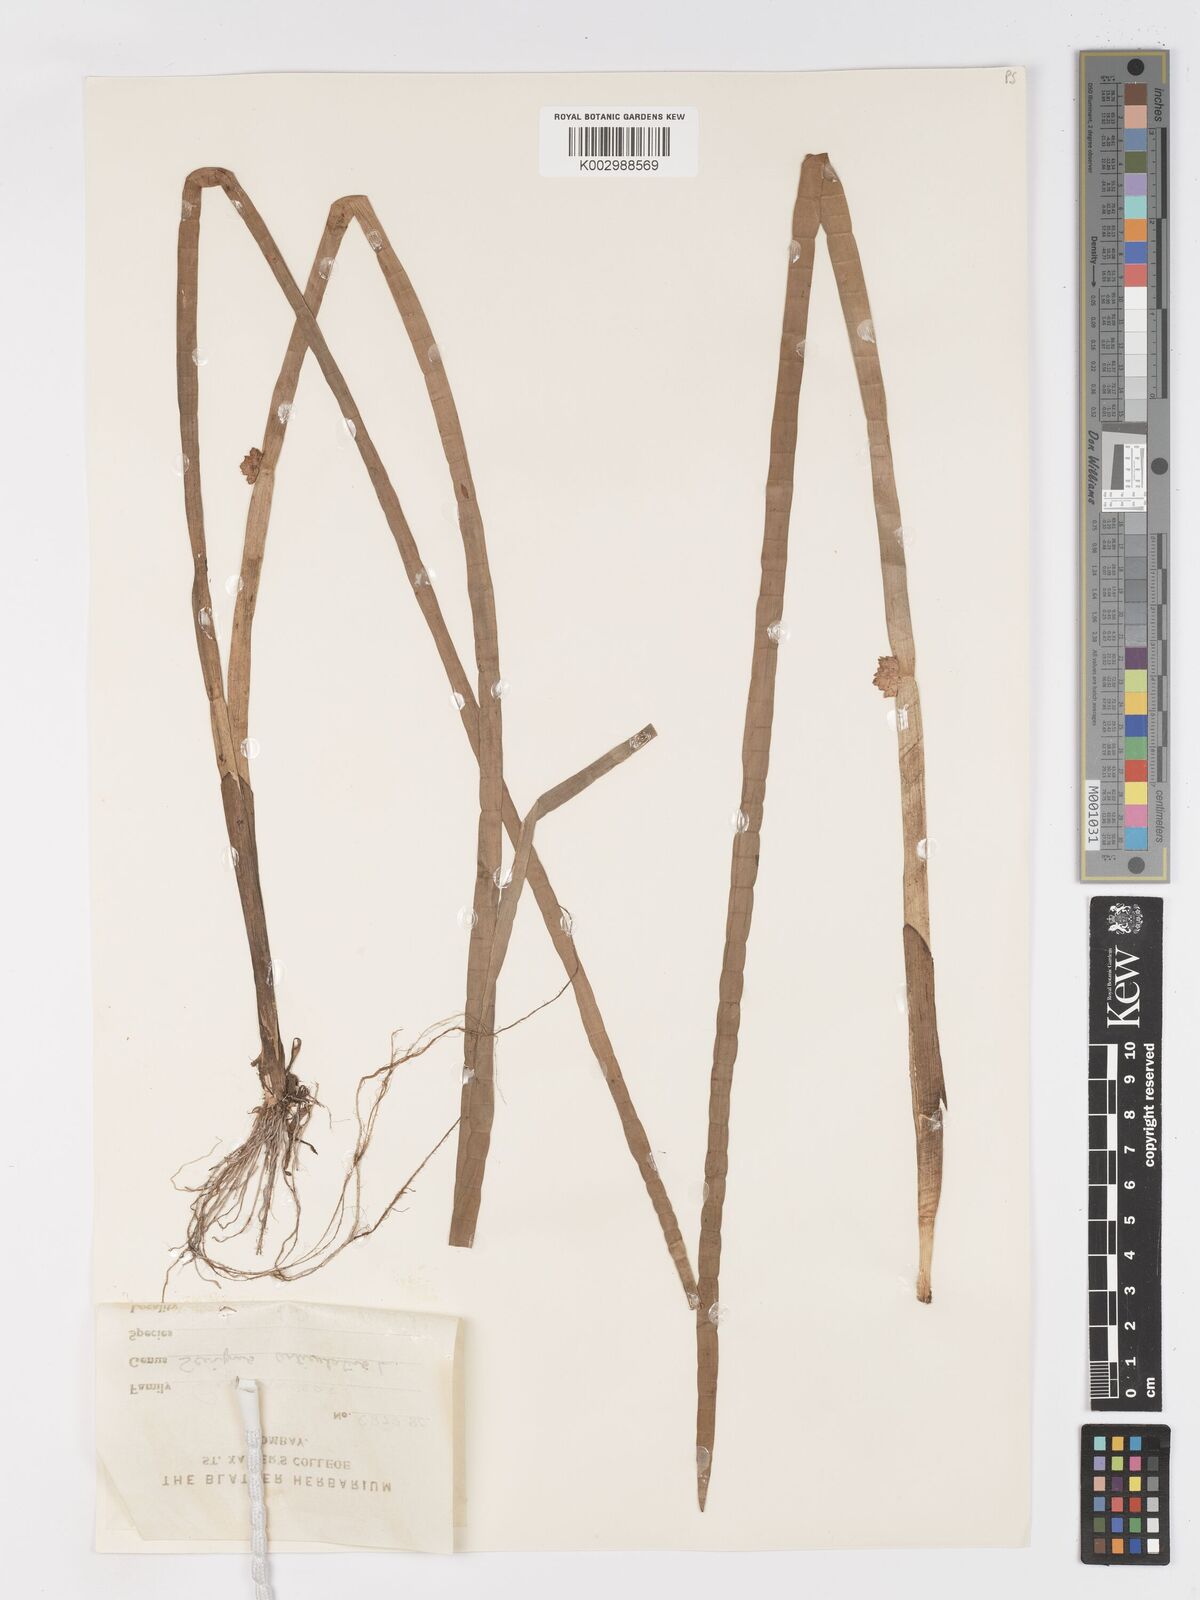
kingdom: Plantae
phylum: Tracheophyta
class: Liliopsida
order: Poales
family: Cyperaceae
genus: Schoenoplectiella
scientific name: Schoenoplectiella articulata
